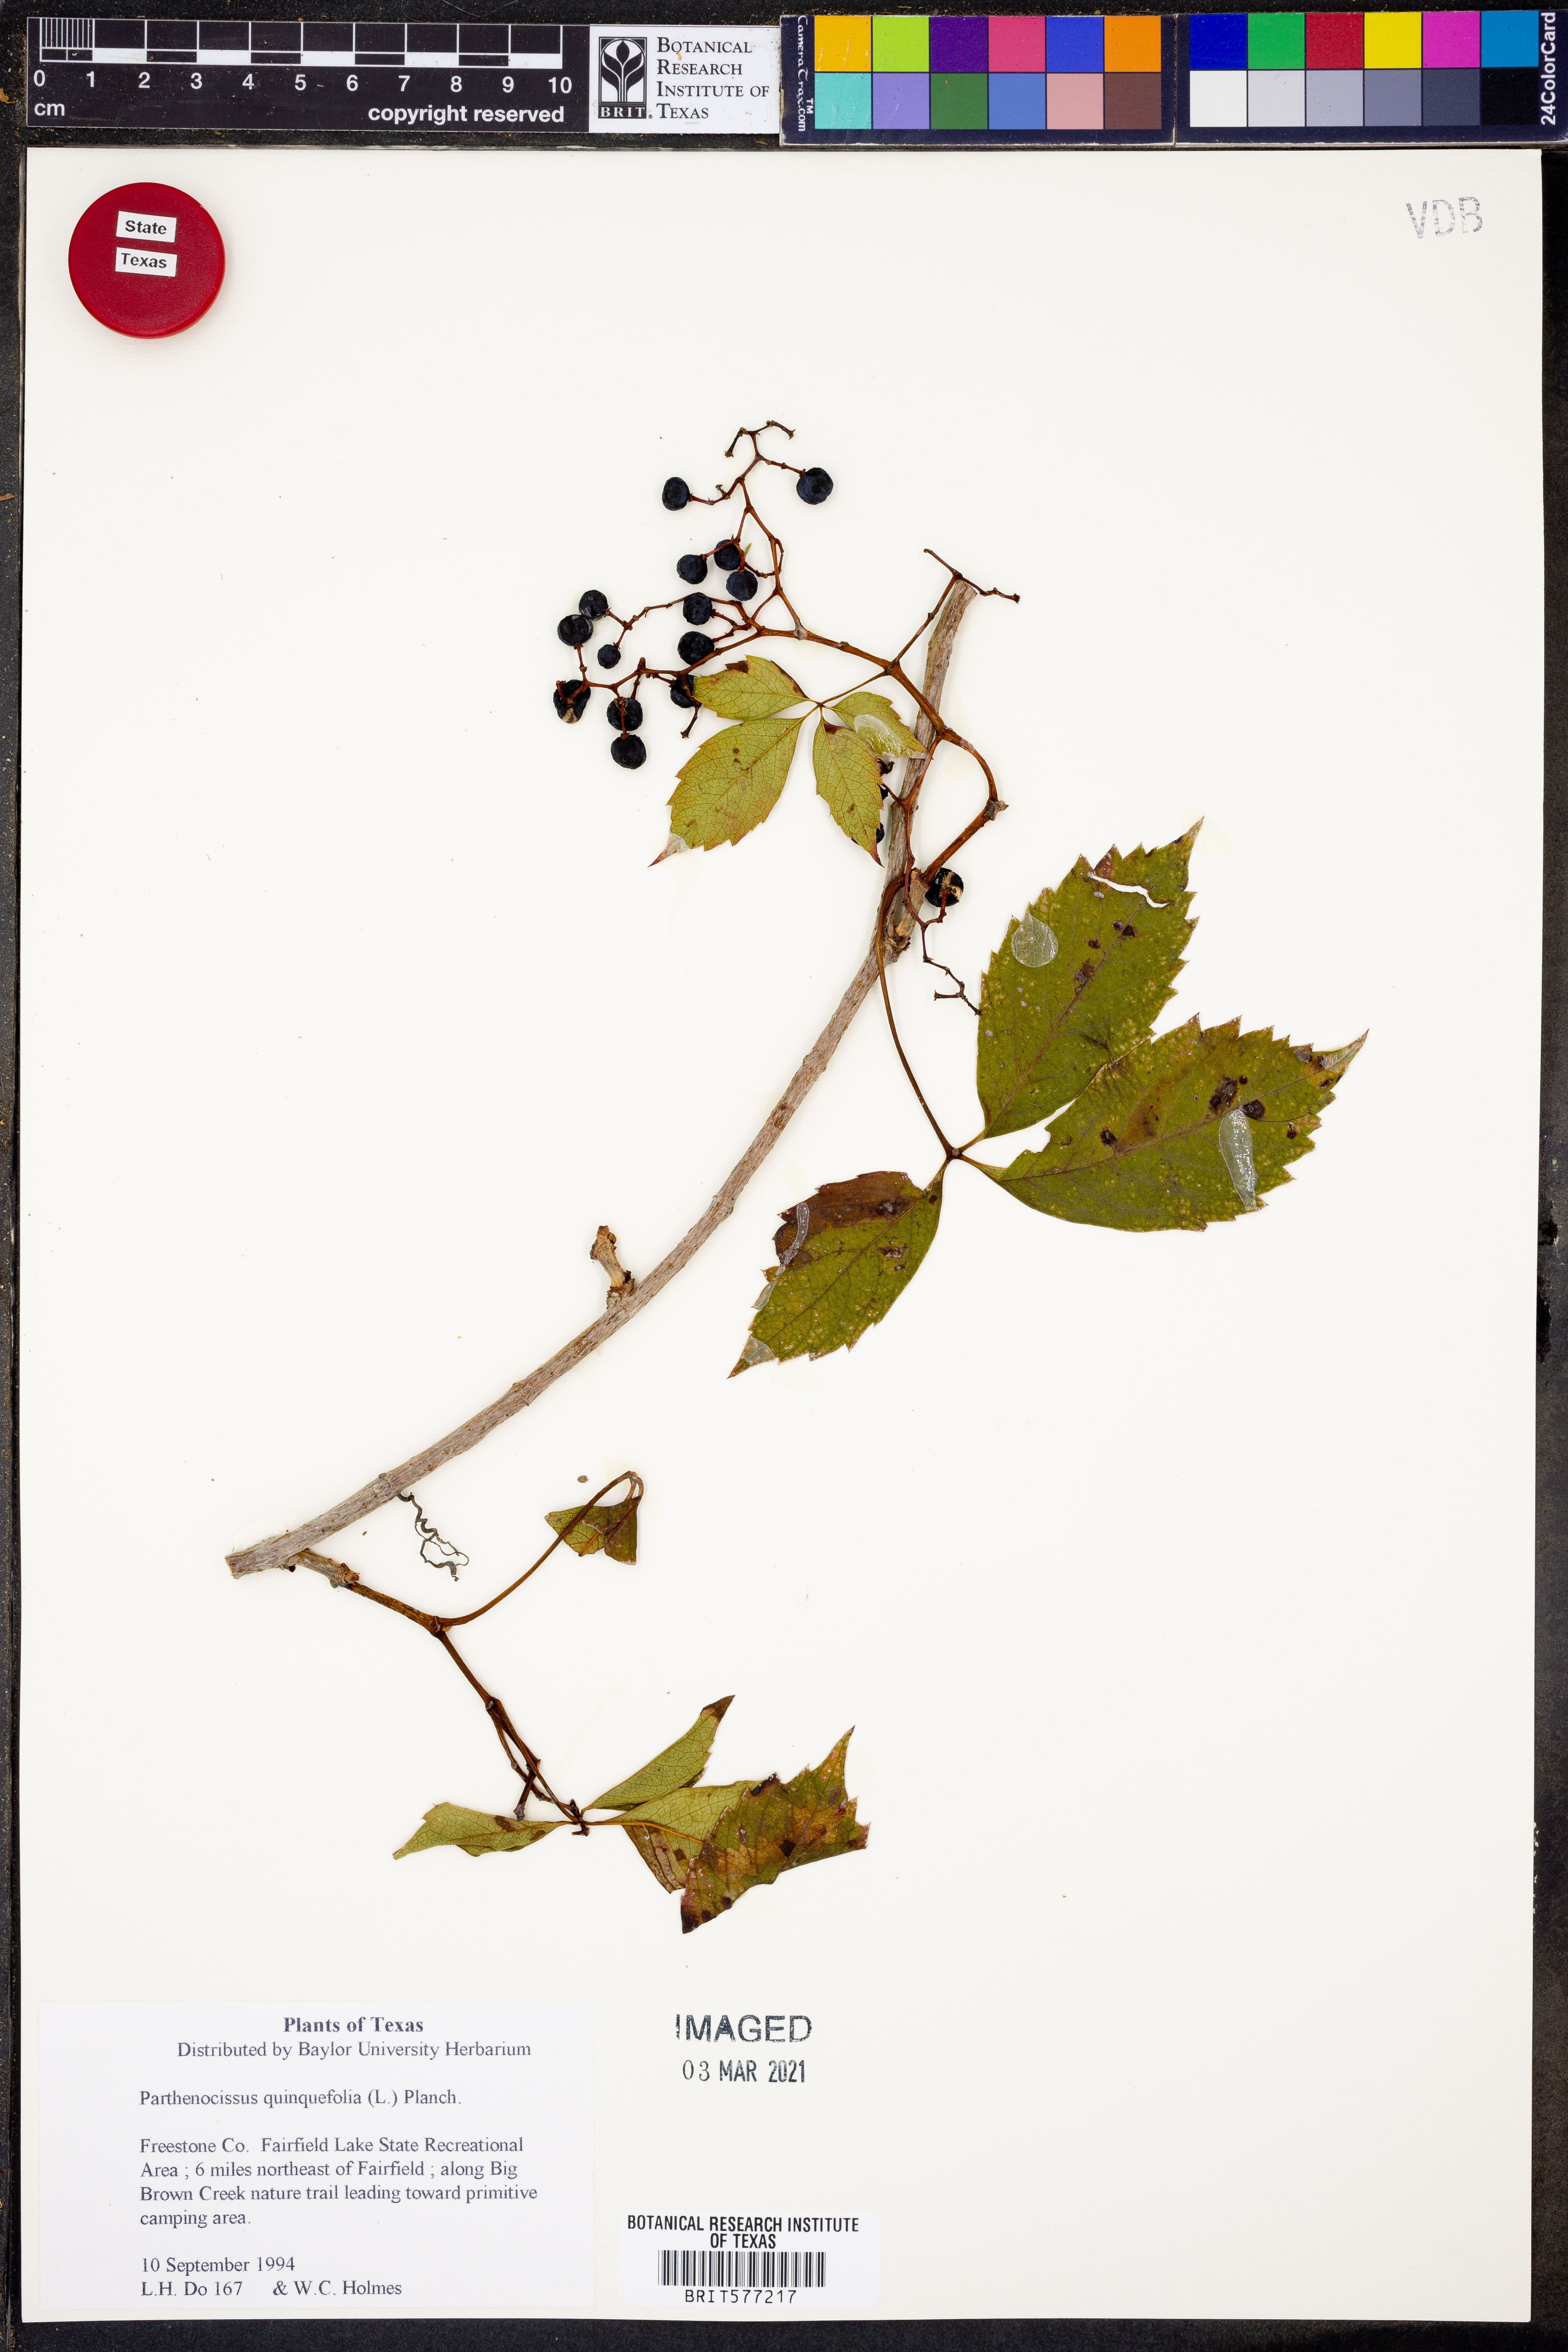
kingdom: Plantae
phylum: Tracheophyta
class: Magnoliopsida
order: Vitales
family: Vitaceae
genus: Parthenocissus
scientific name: Parthenocissus quinquefolia
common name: Virginia-creeper
